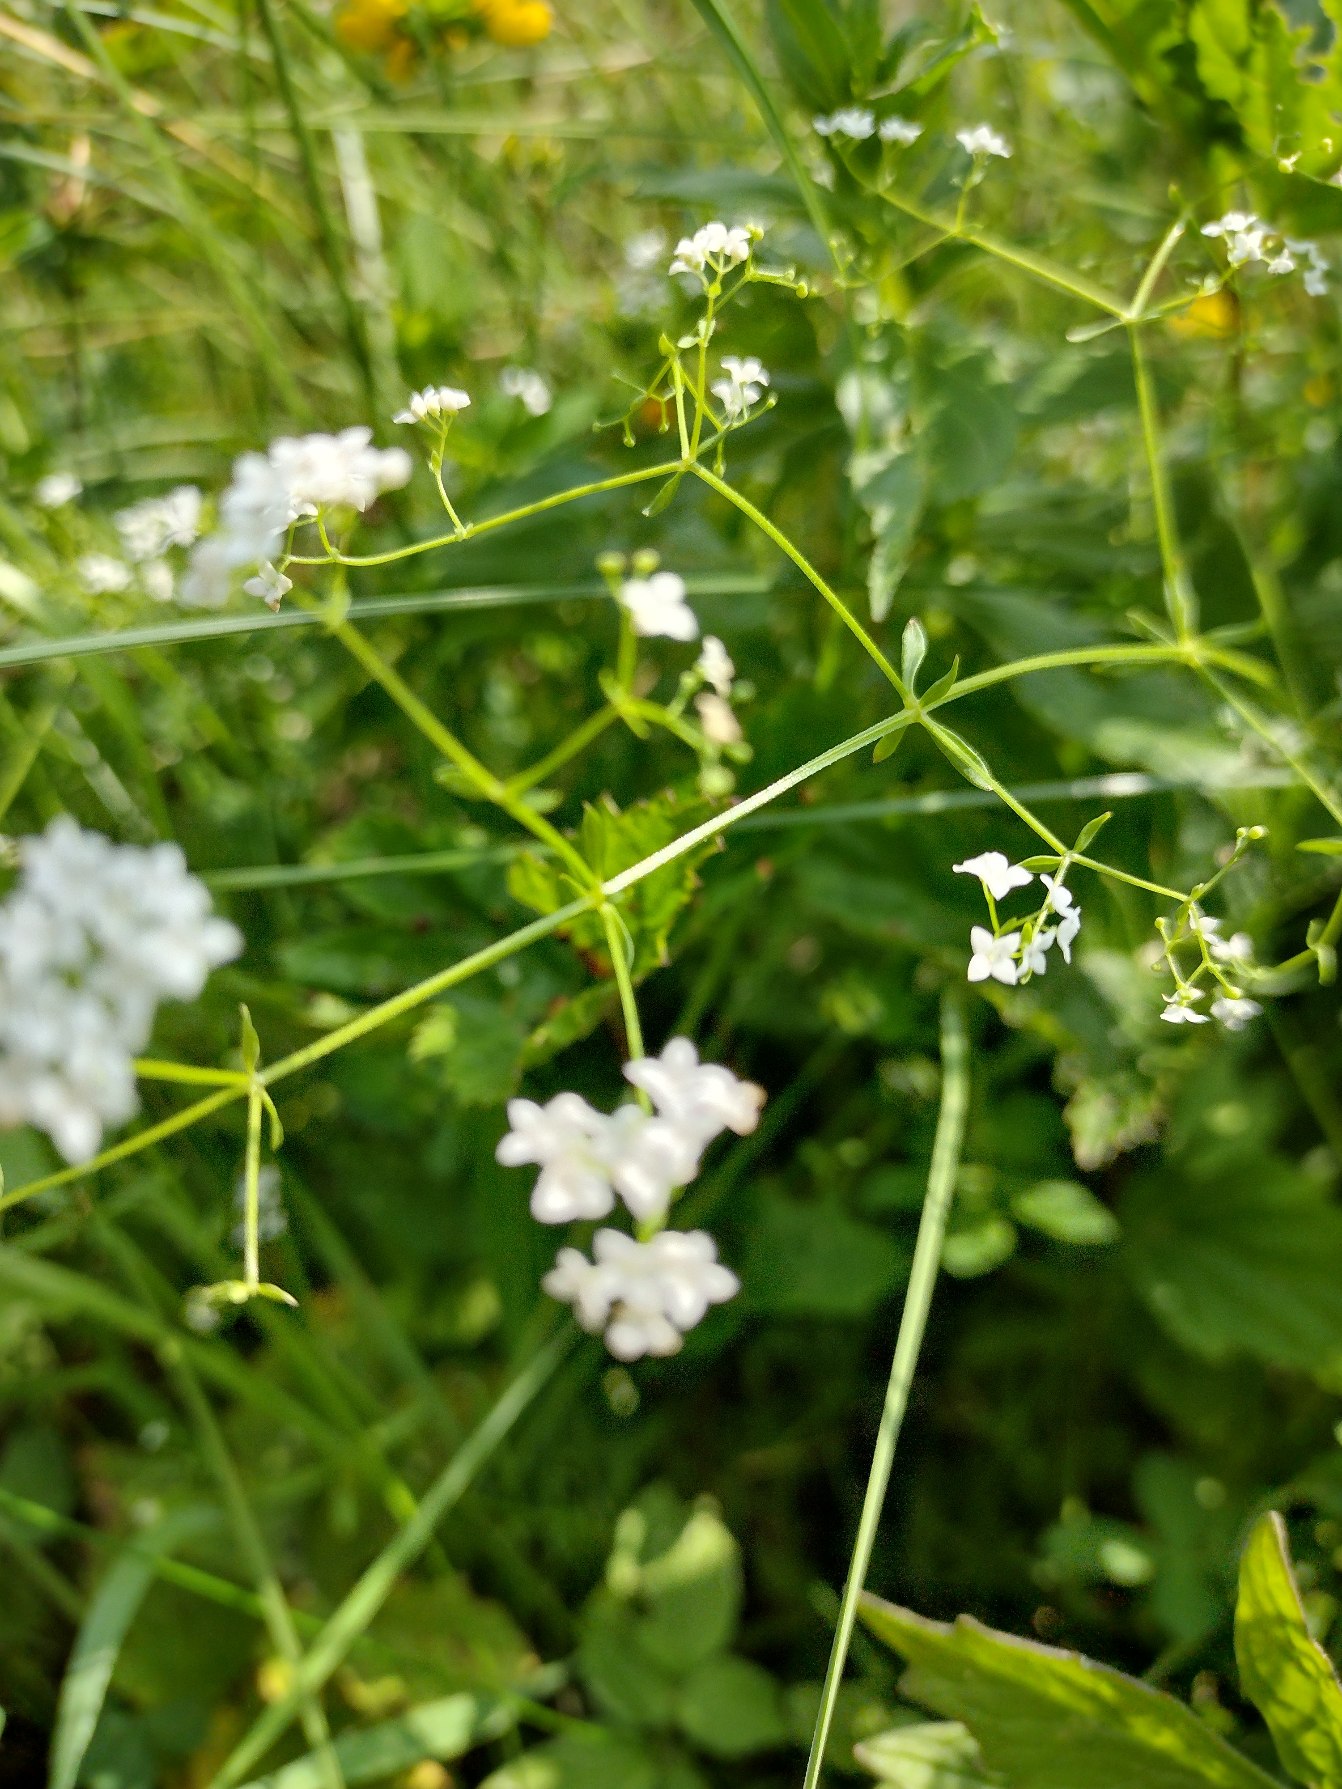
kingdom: Plantae
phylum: Tracheophyta
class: Magnoliopsida
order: Gentianales
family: Rubiaceae
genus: Galium
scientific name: Galium palustre
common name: Kær-snerre
